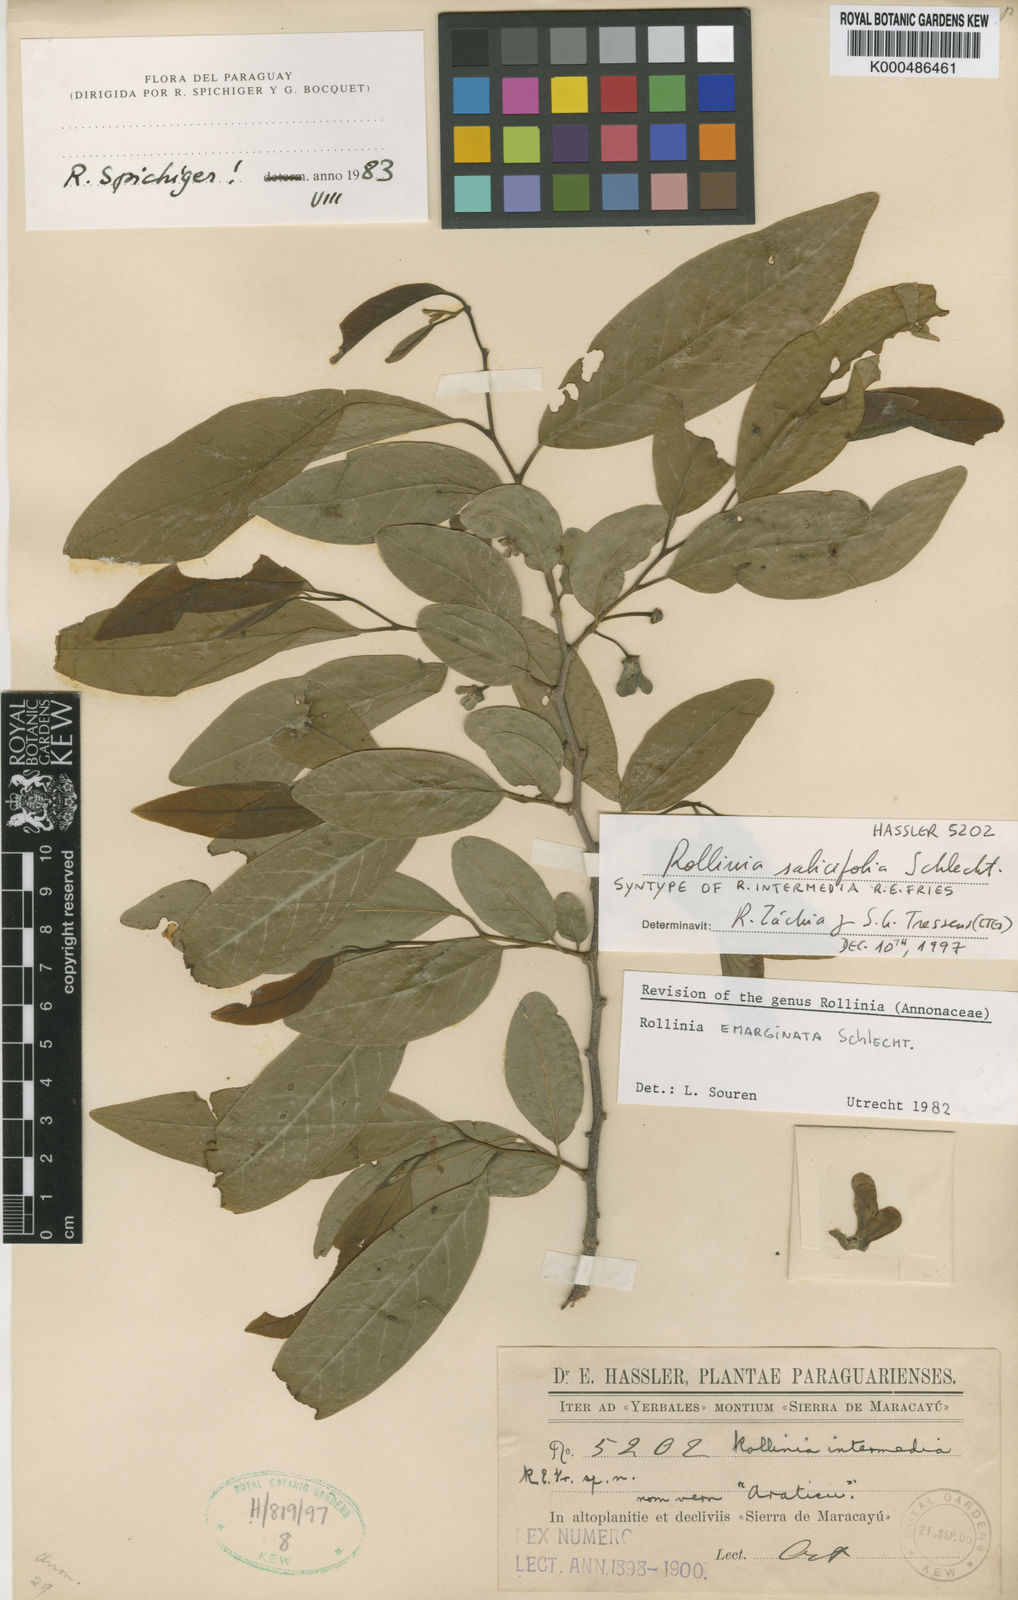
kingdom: Plantae
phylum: Tracheophyta
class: Magnoliopsida
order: Magnoliales
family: Annonaceae
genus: Annona
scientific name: Annona neosalicifolia
